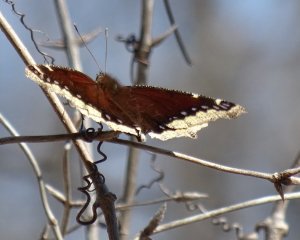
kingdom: Animalia
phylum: Arthropoda
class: Insecta
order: Lepidoptera
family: Nymphalidae
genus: Nymphalis
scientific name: Nymphalis antiopa
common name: Mourning Cloak
